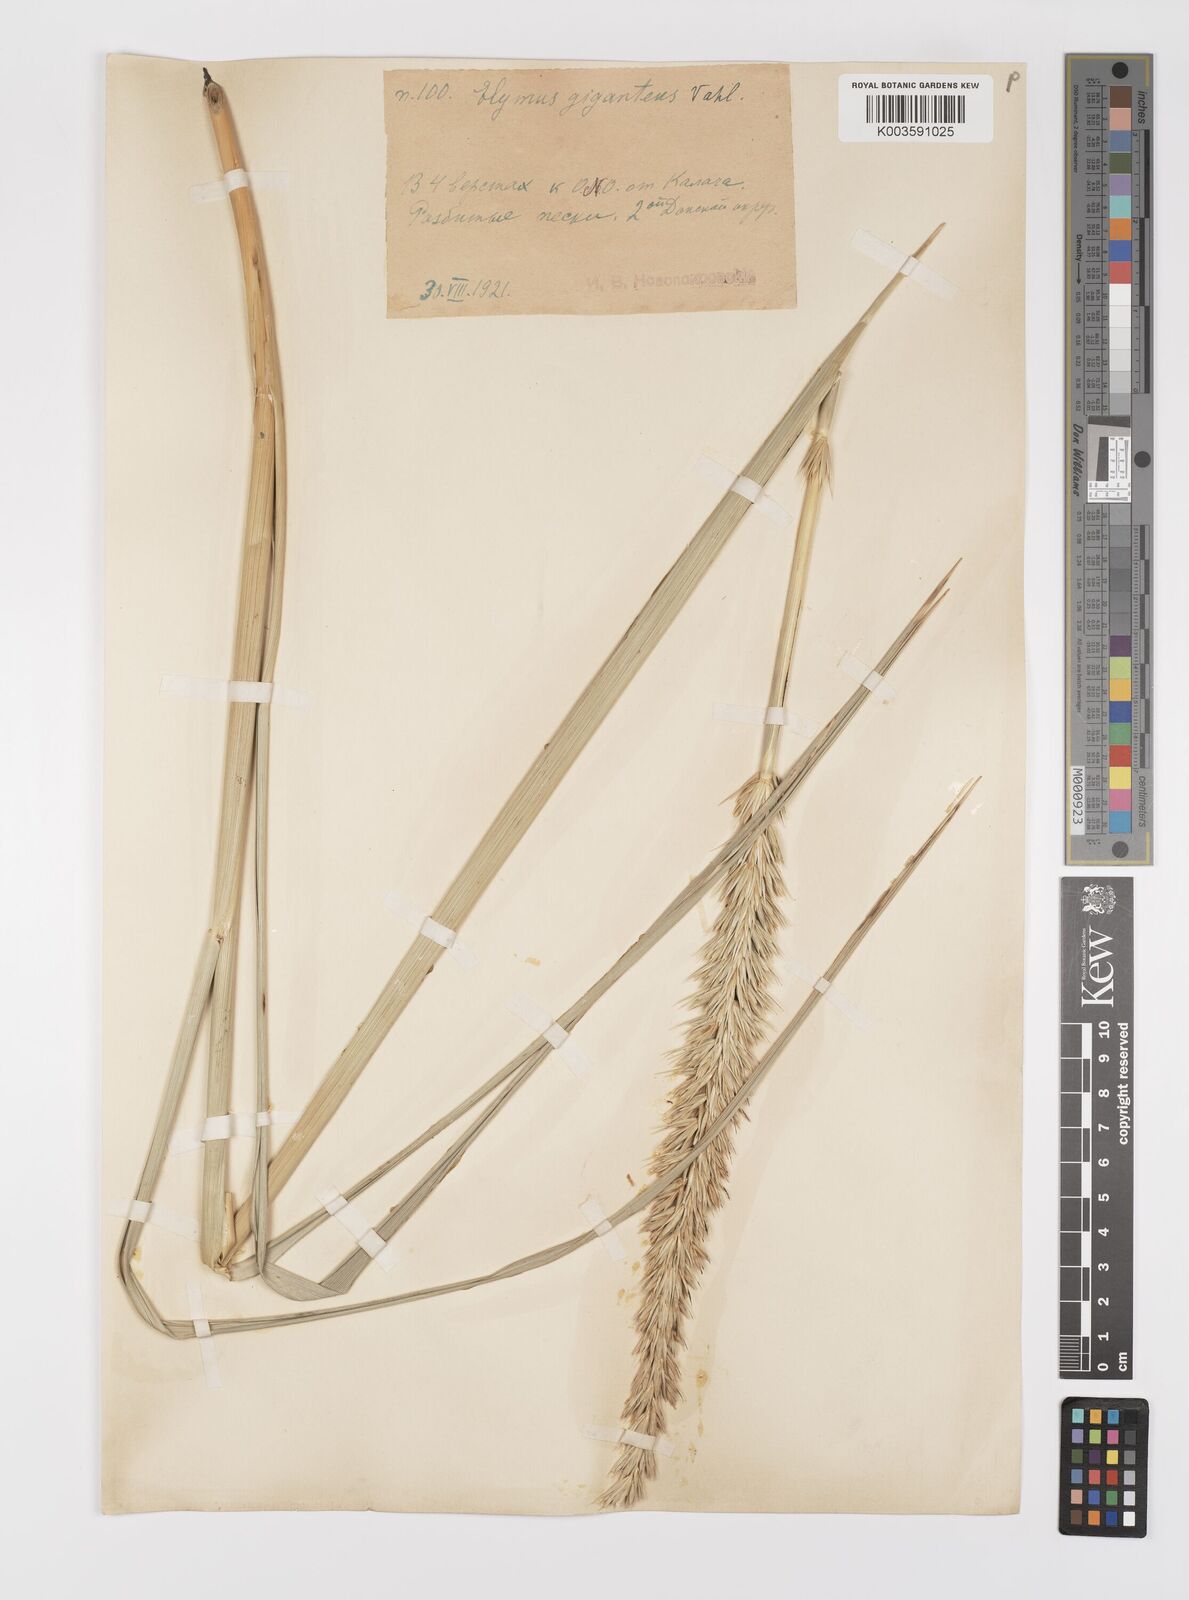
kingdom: Plantae
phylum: Tracheophyta
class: Liliopsida
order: Poales
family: Poaceae
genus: Leymus
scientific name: Leymus racemosus
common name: Mammoth wildrye
